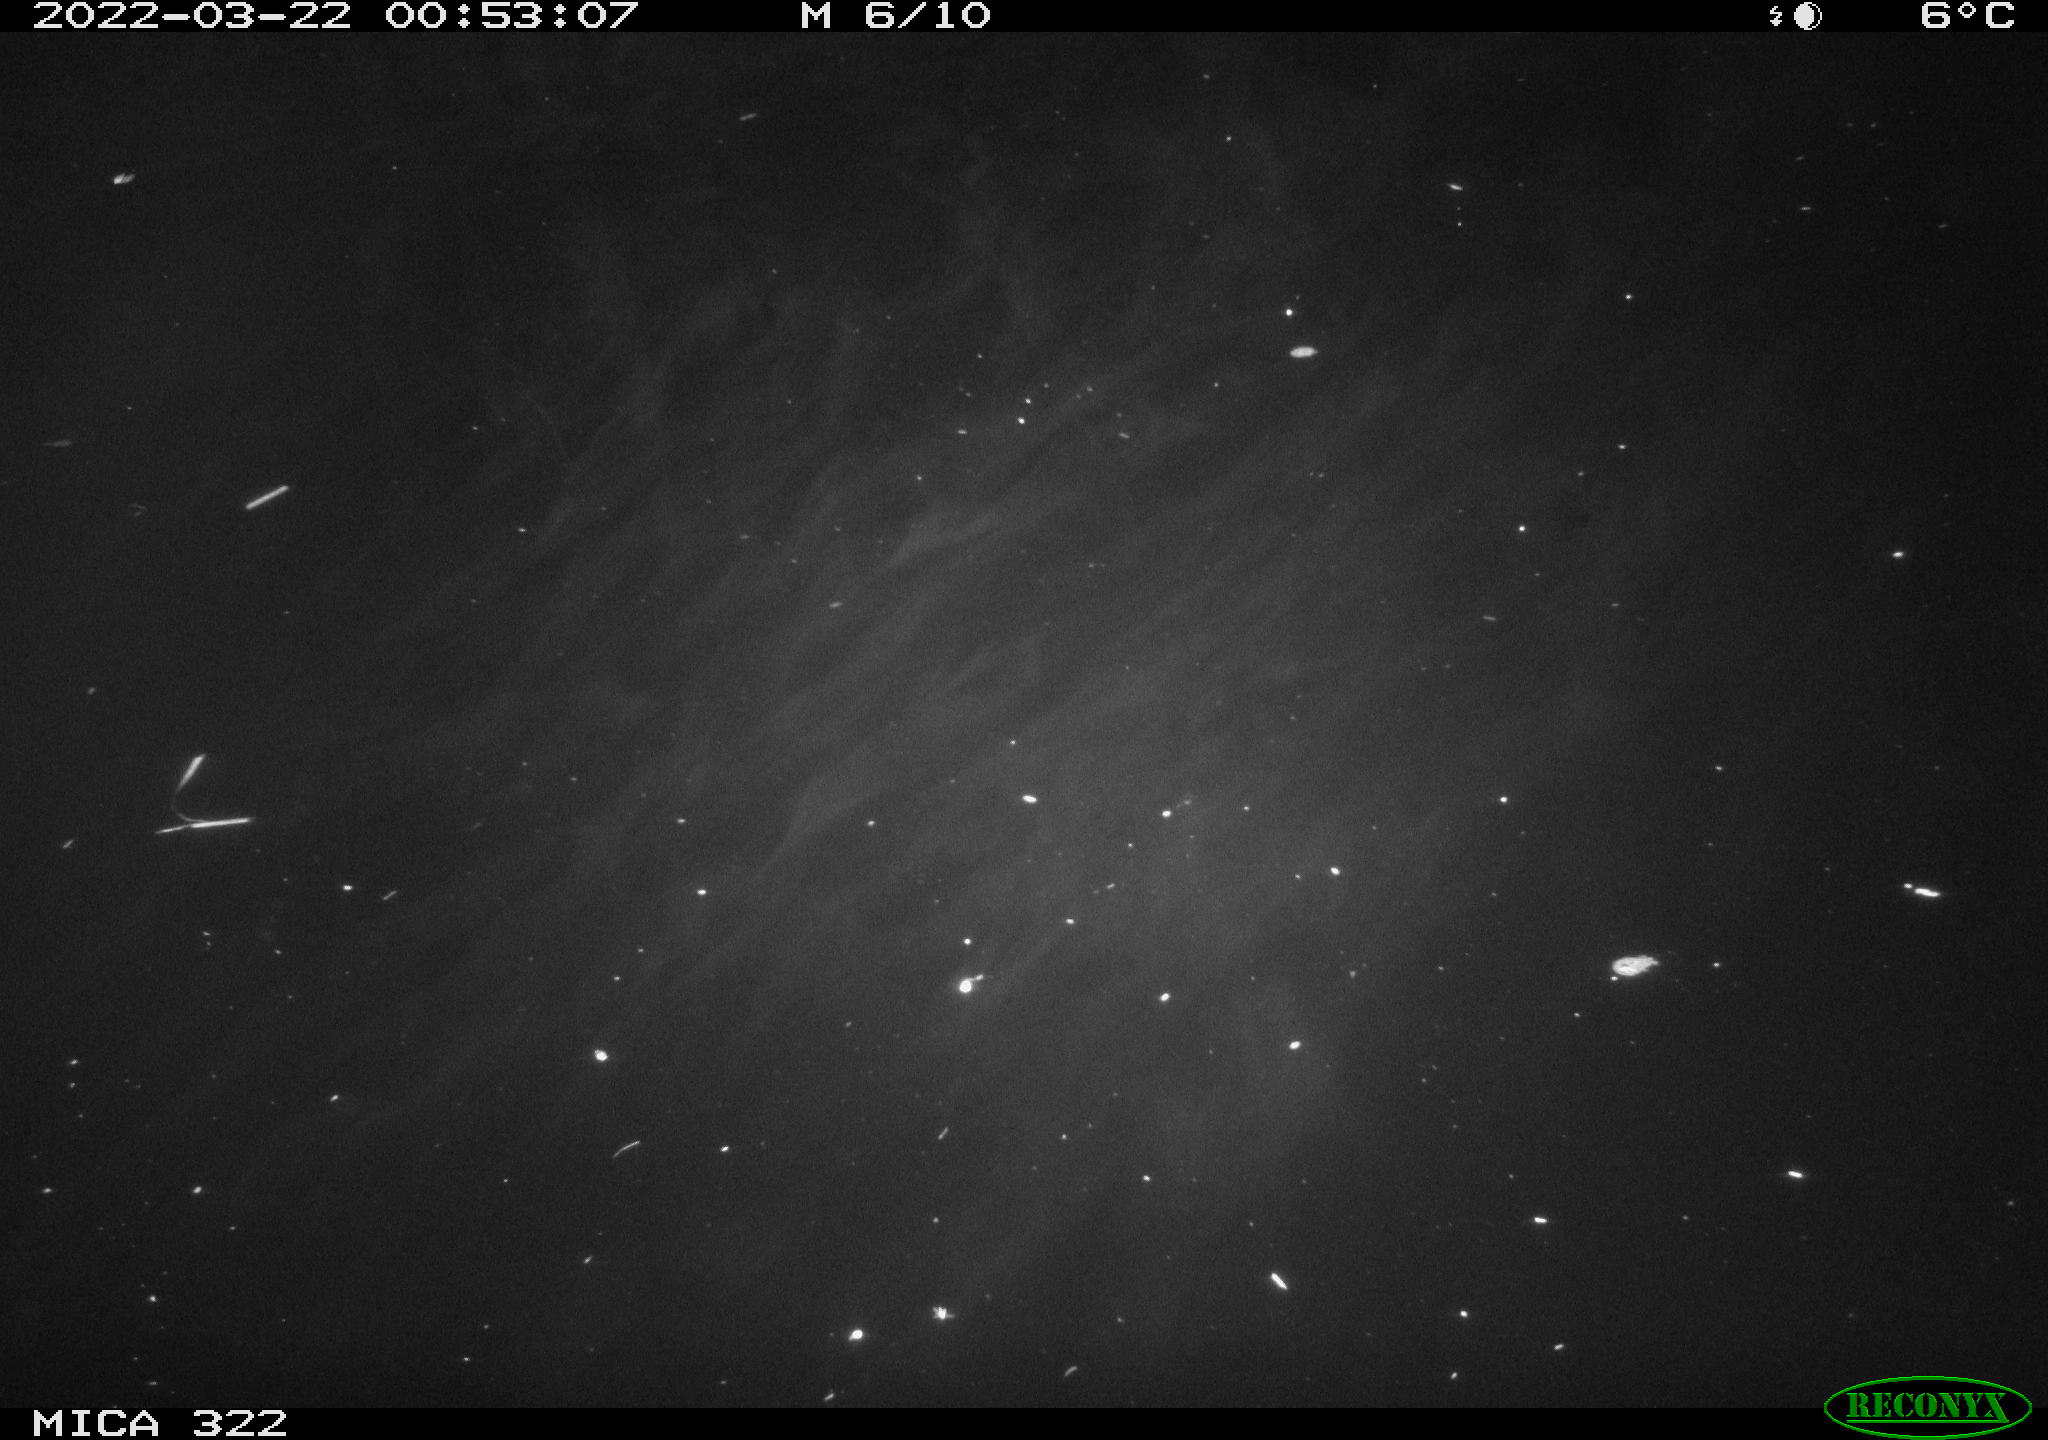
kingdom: Animalia
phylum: Chordata
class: Aves
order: Anseriformes
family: Anatidae
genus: Mareca
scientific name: Mareca strepera
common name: Gadwall
